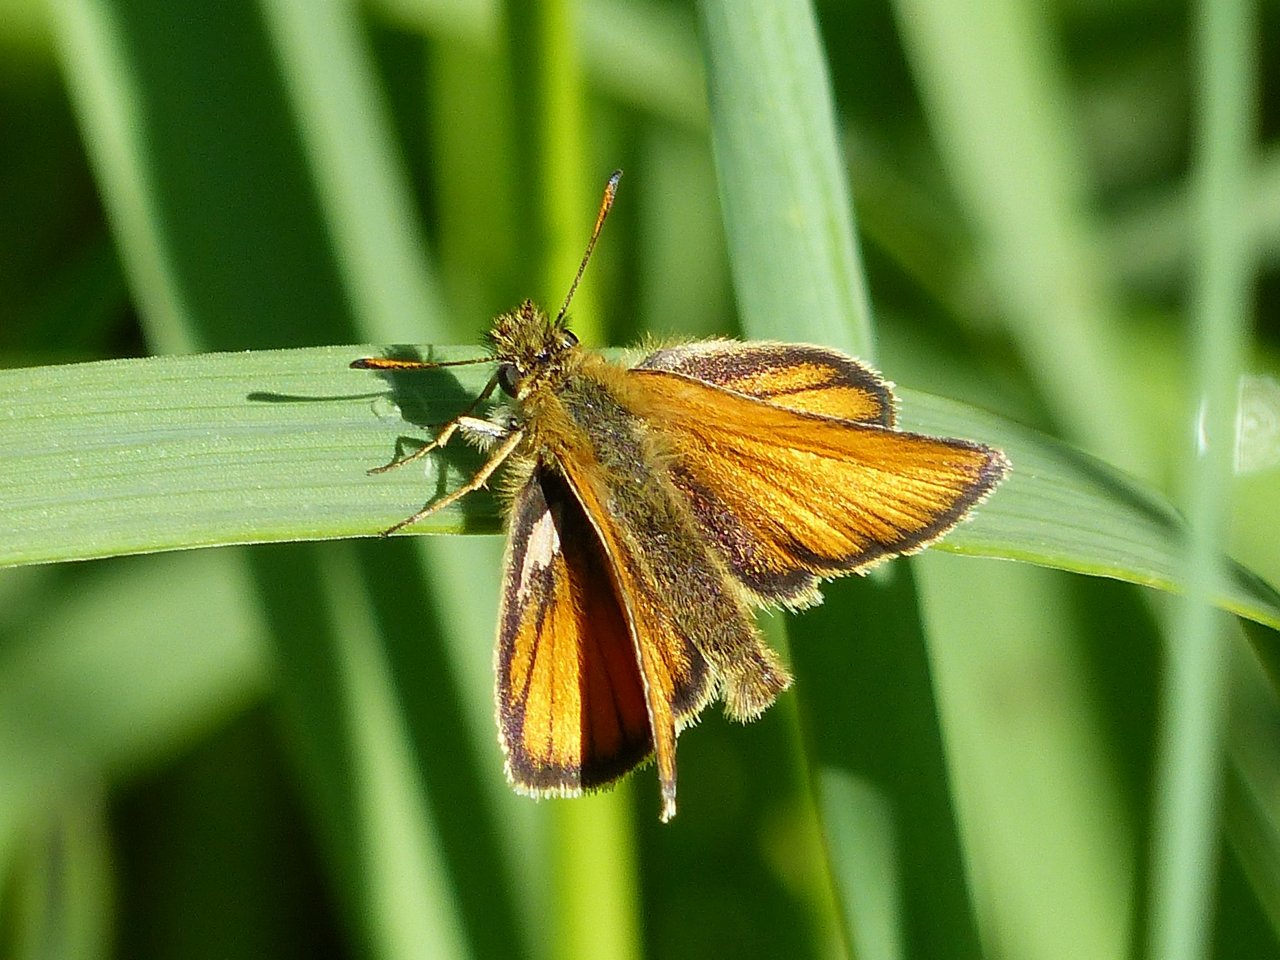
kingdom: Animalia
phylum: Arthropoda
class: Insecta
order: Lepidoptera
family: Hesperiidae
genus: Thymelicus
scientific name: Thymelicus lineola
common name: European Skipper
